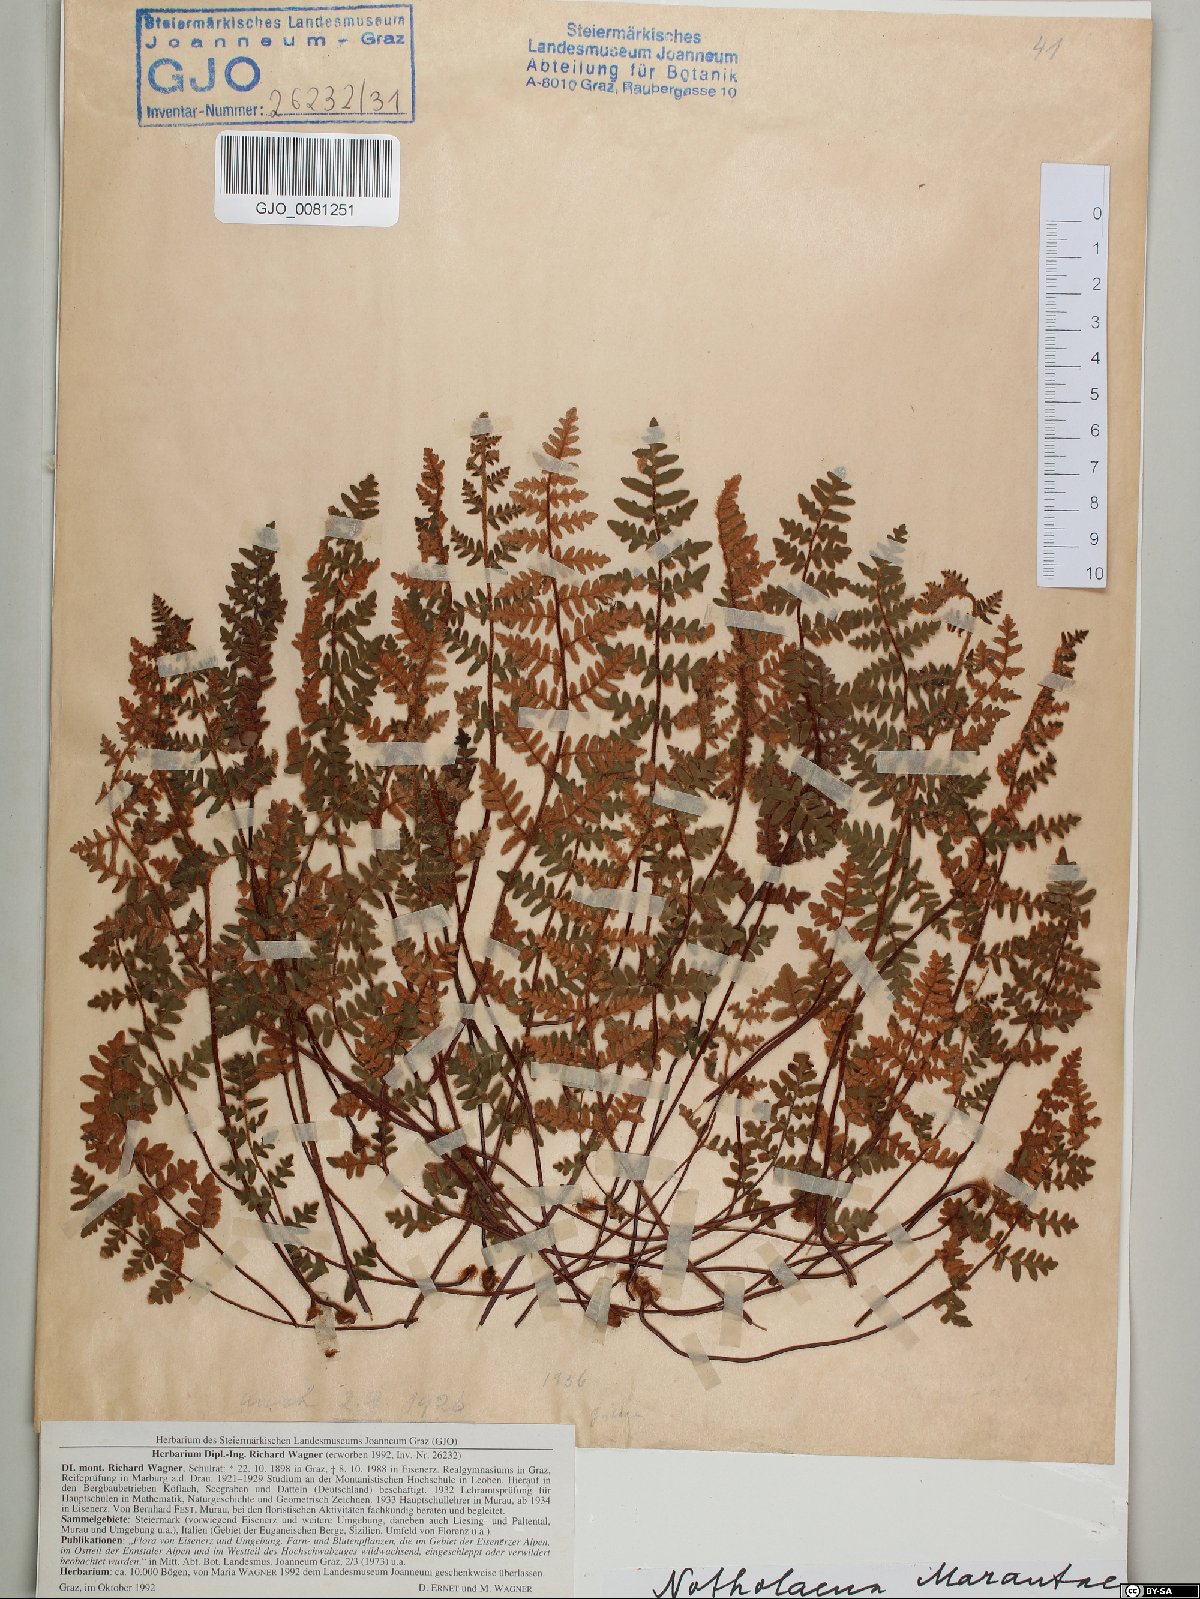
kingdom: Plantae
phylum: Tracheophyta
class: Polypodiopsida
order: Polypodiales
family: Pteridaceae
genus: Paragymnopteris
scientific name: Paragymnopteris marantae
